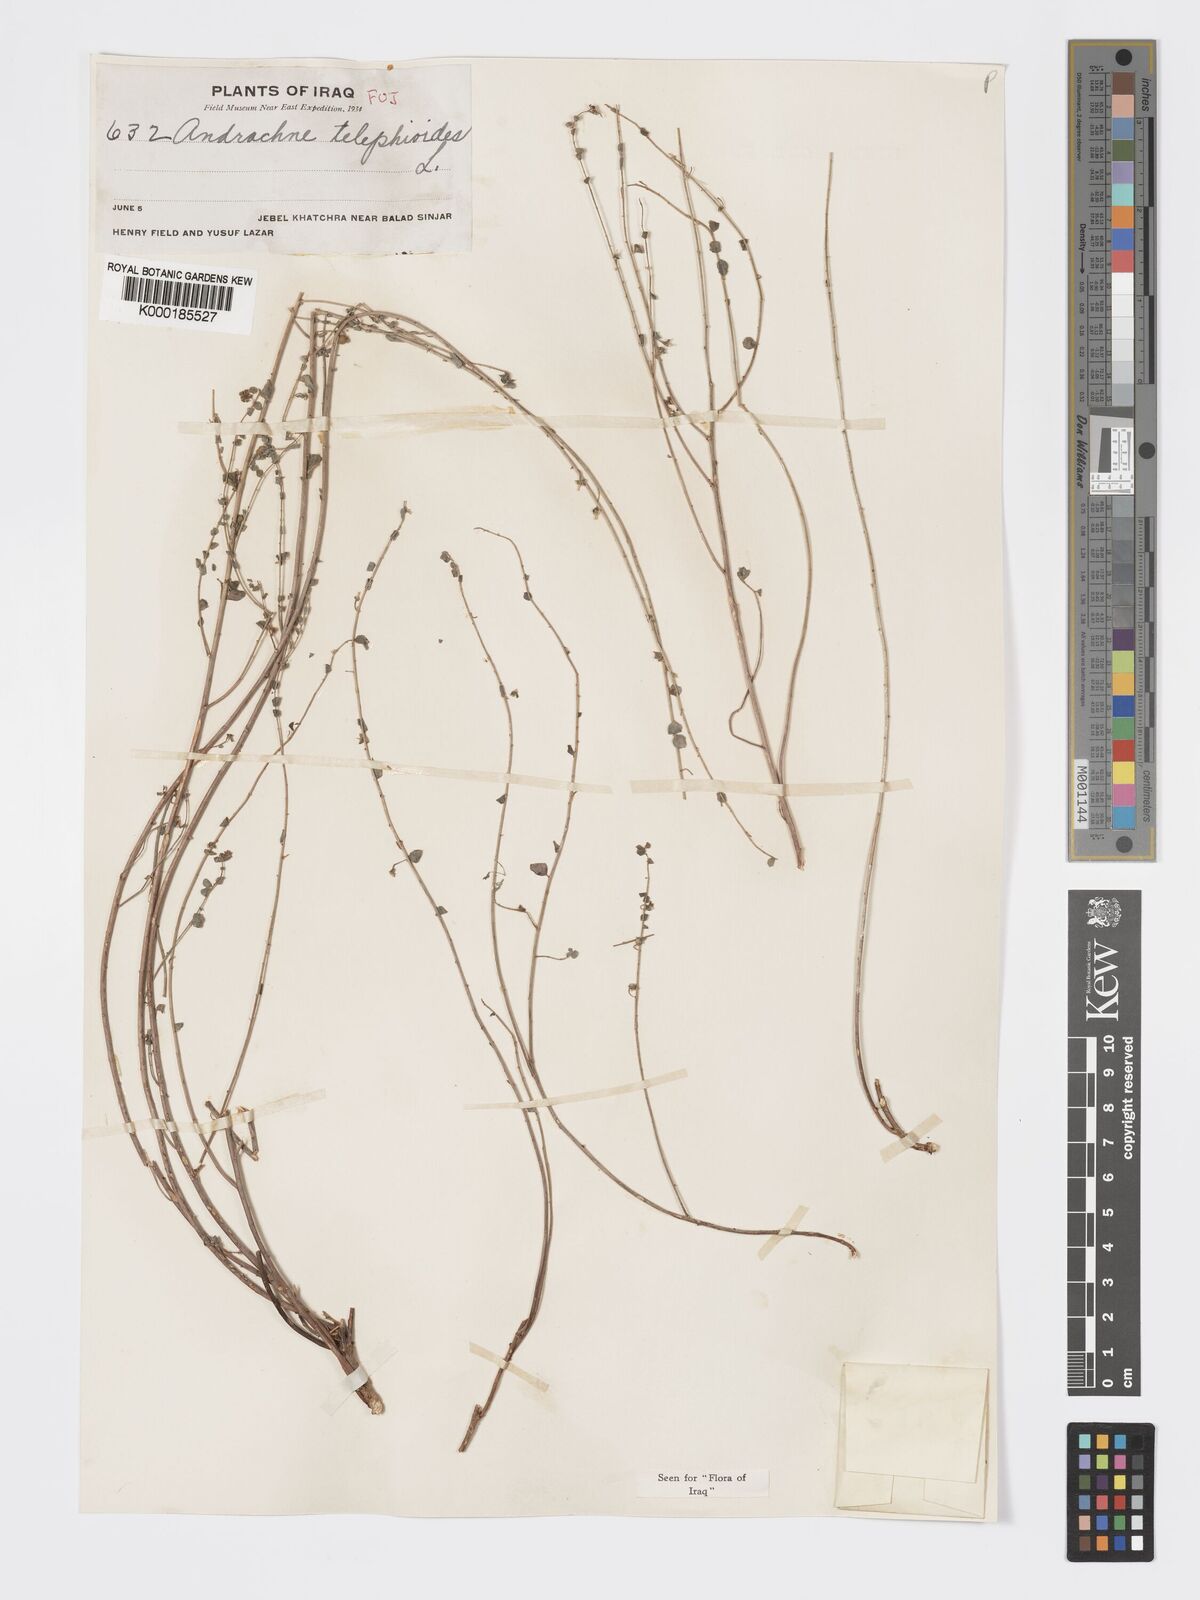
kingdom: Plantae
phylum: Tracheophyta
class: Magnoliopsida
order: Malpighiales
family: Phyllanthaceae
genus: Andrachne
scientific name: Andrachne telephioides
